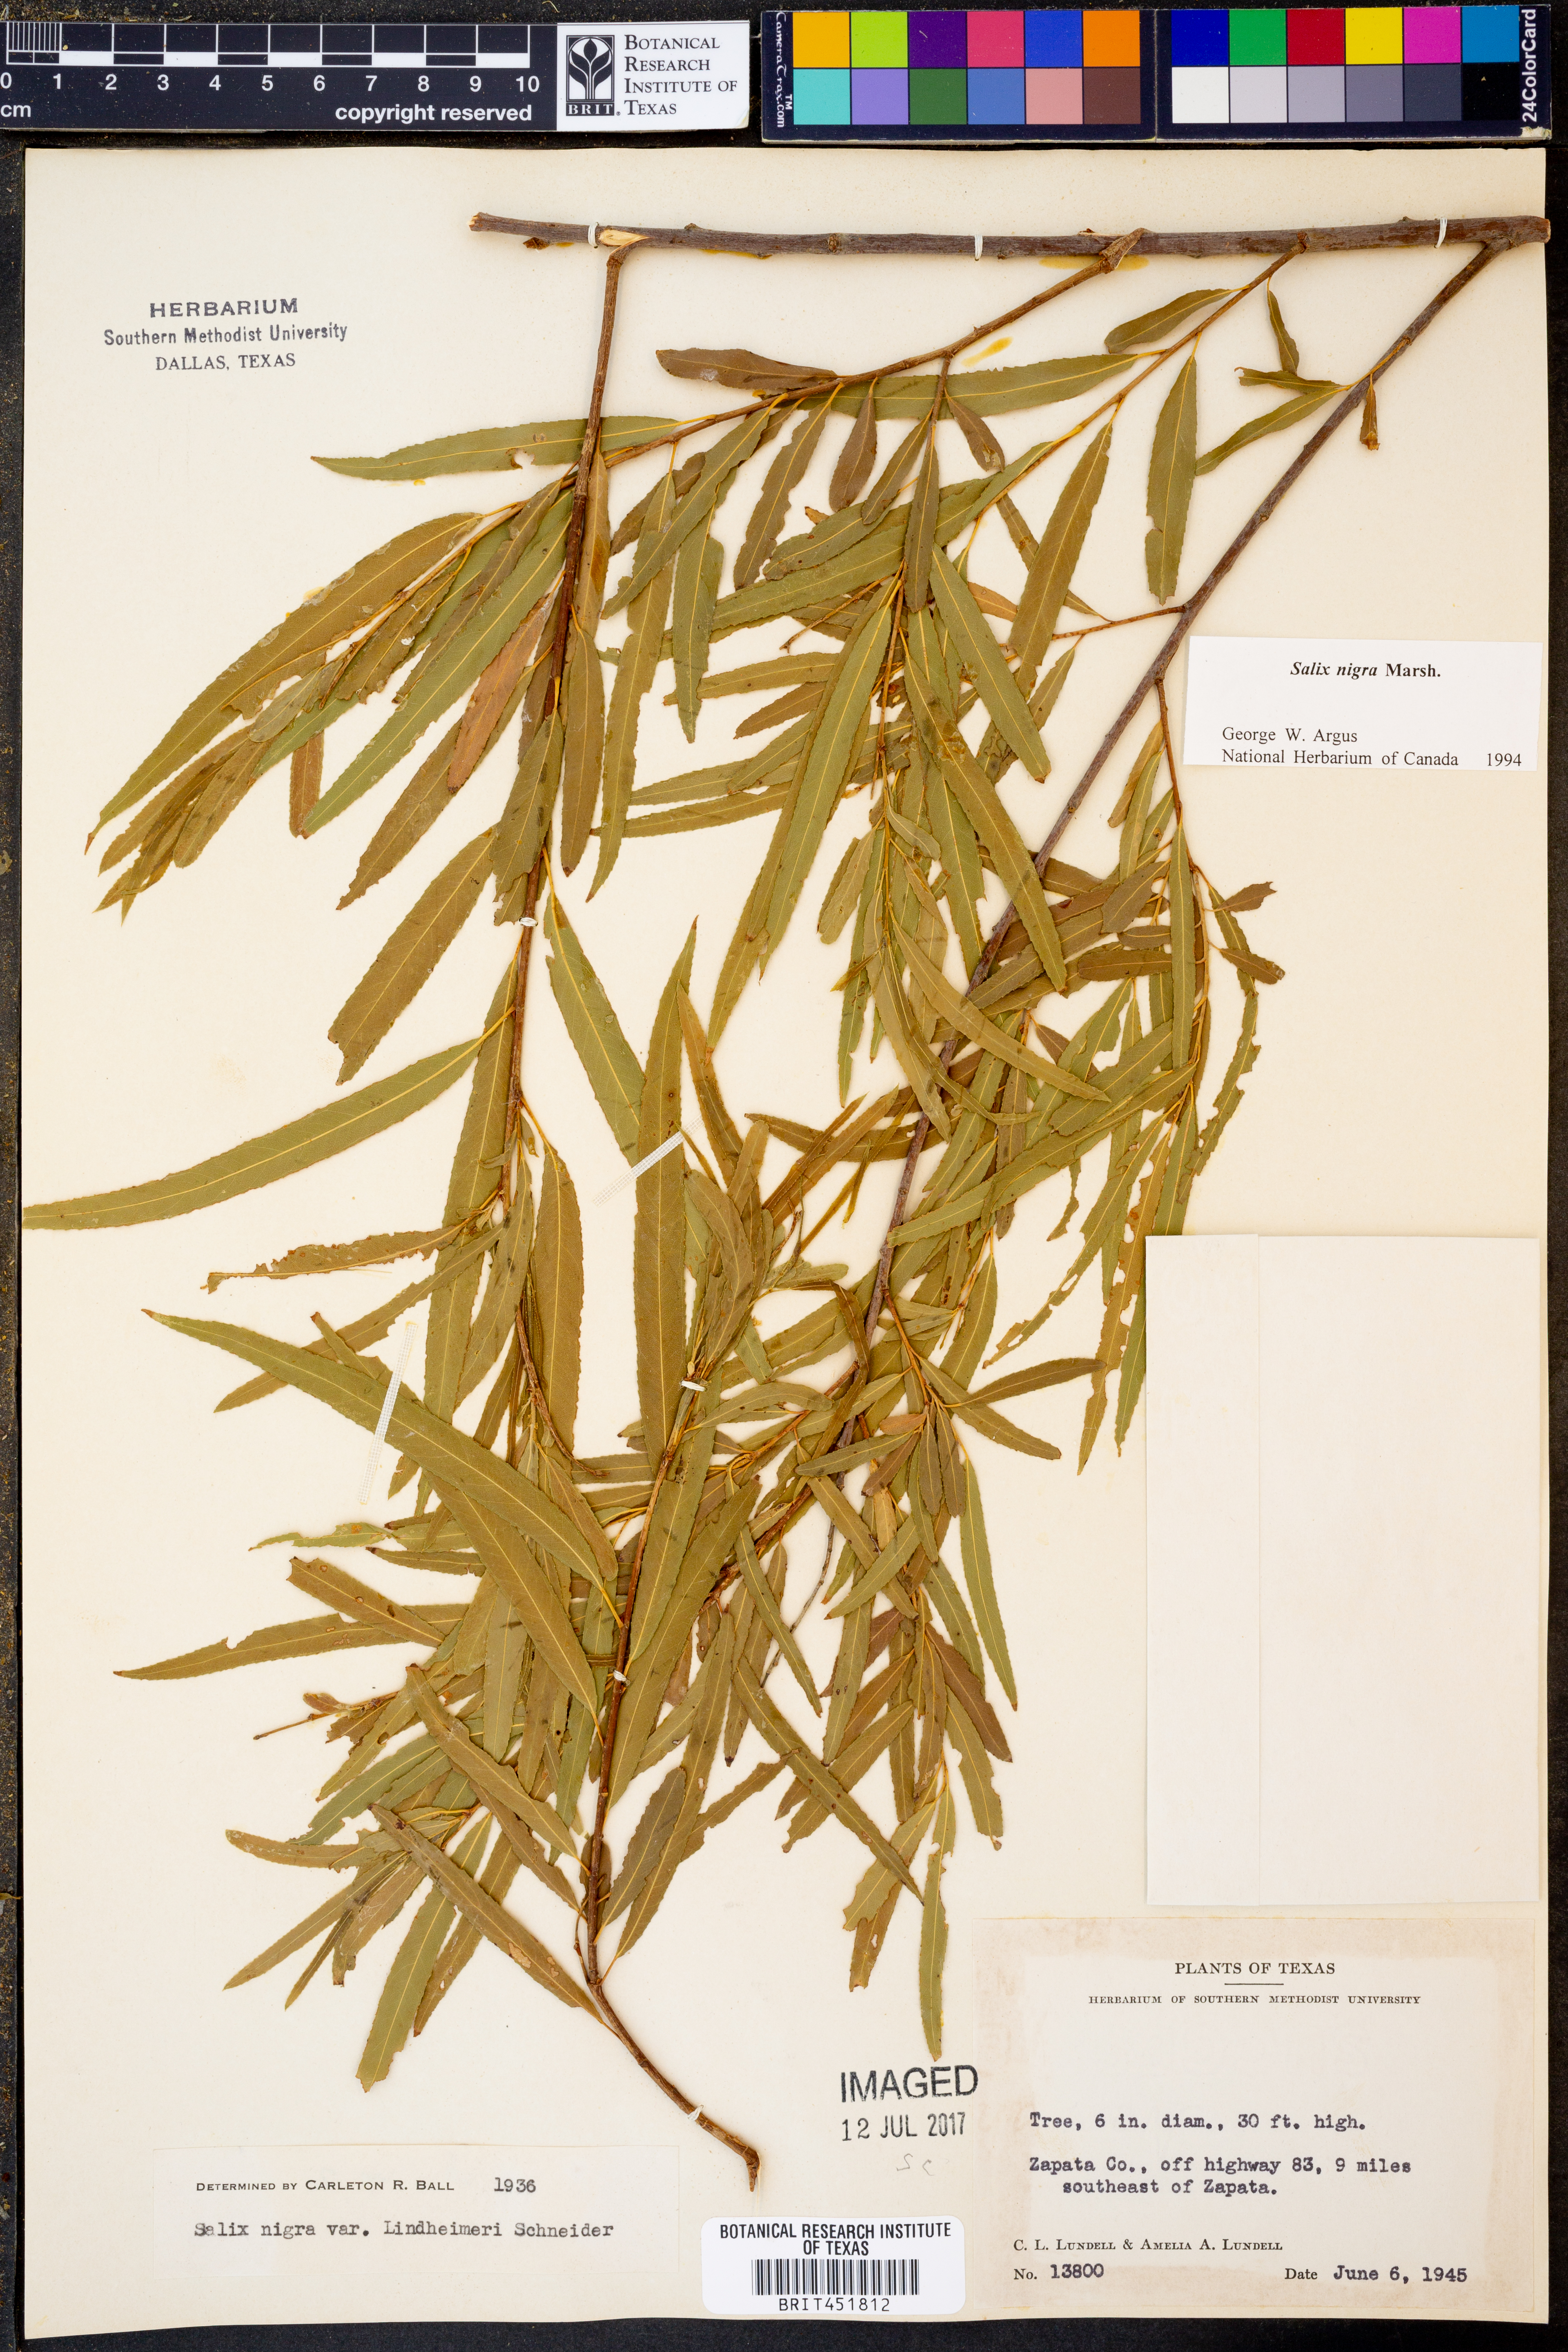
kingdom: Plantae
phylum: Tracheophyta
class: Magnoliopsida
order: Malpighiales
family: Salicaceae
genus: Salix
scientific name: Salix nigra
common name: Black willow
